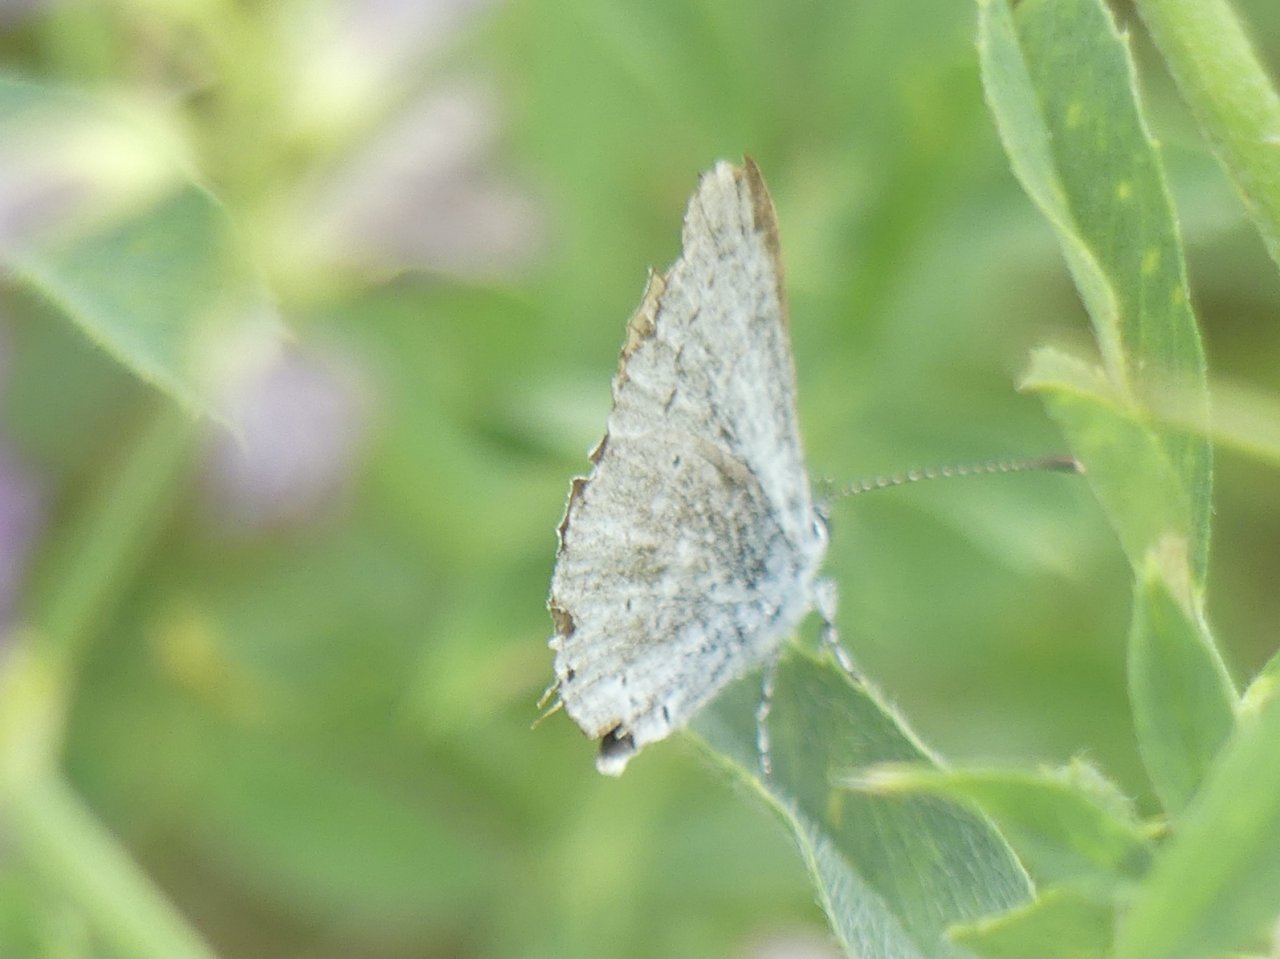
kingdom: Animalia
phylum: Arthropoda
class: Insecta
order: Lepidoptera
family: Lycaenidae
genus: Elkalyce
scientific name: Elkalyce amyntula
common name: Western Tailed-Blue
